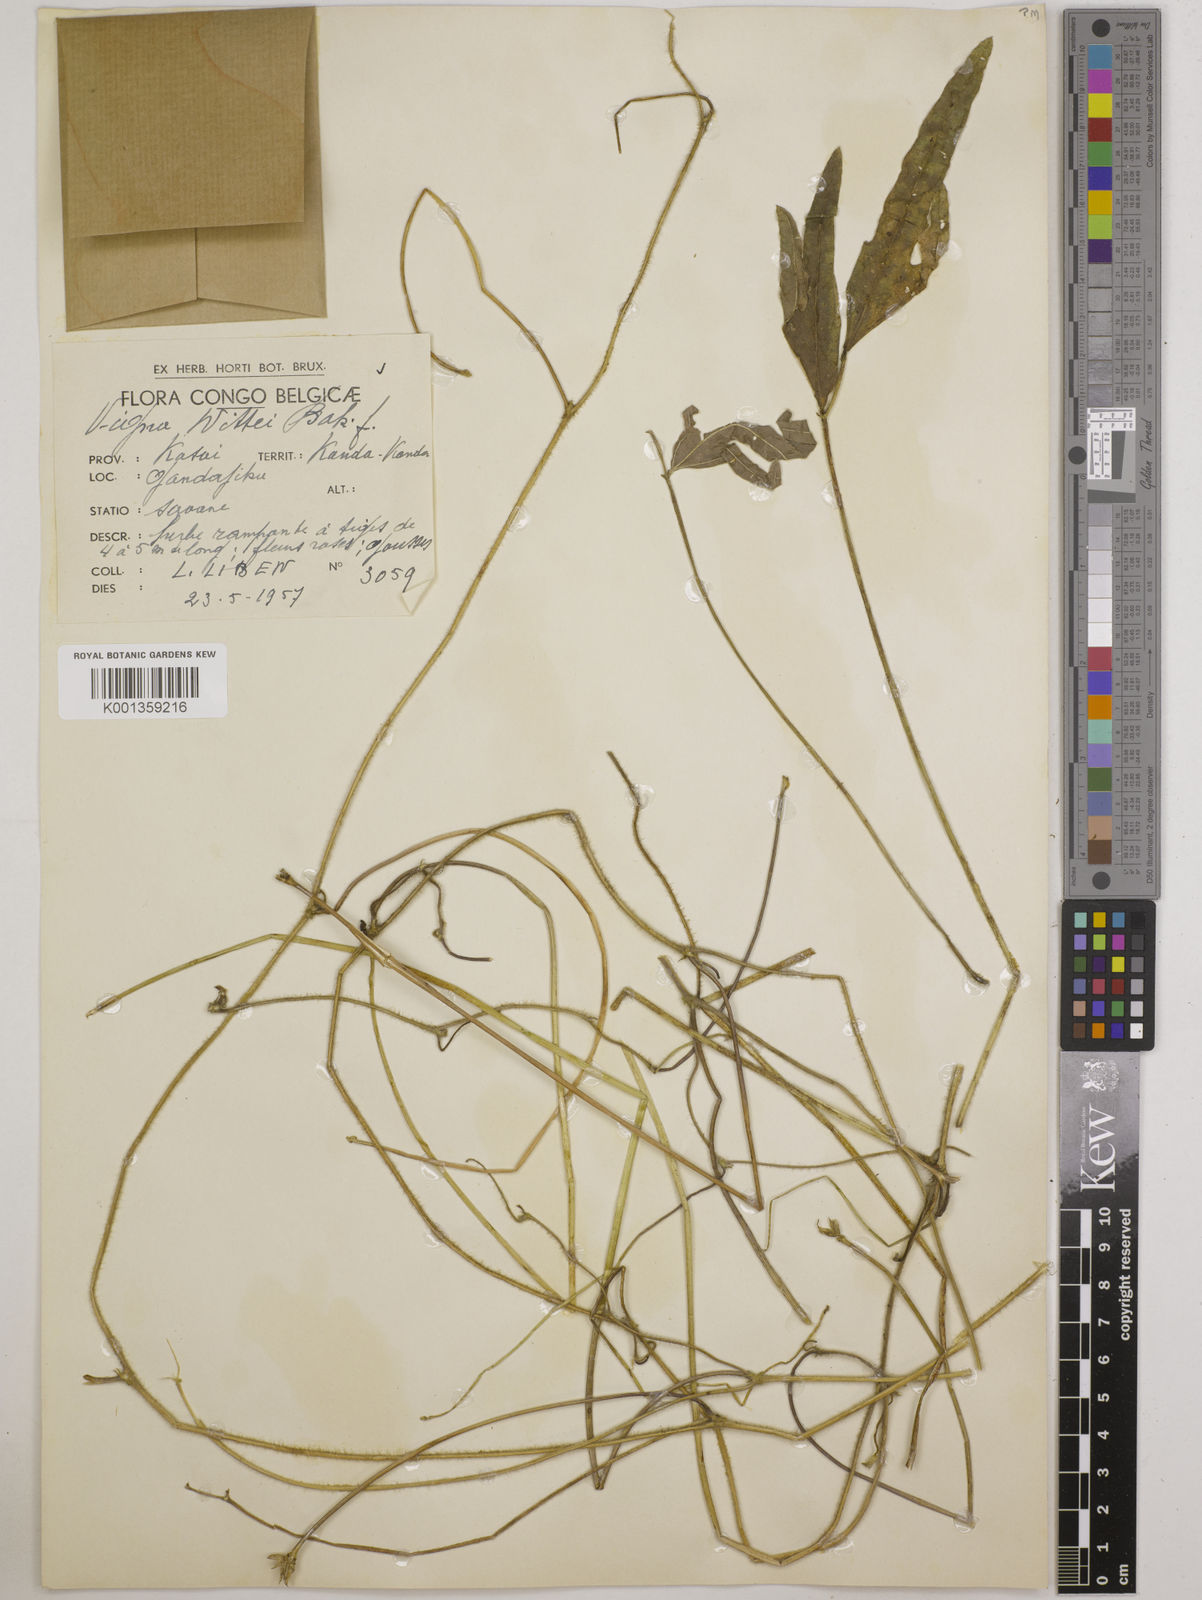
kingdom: Plantae
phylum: Tracheophyta
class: Magnoliopsida
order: Fabales
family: Fabaceae
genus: Vigna
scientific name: Vigna wittei
